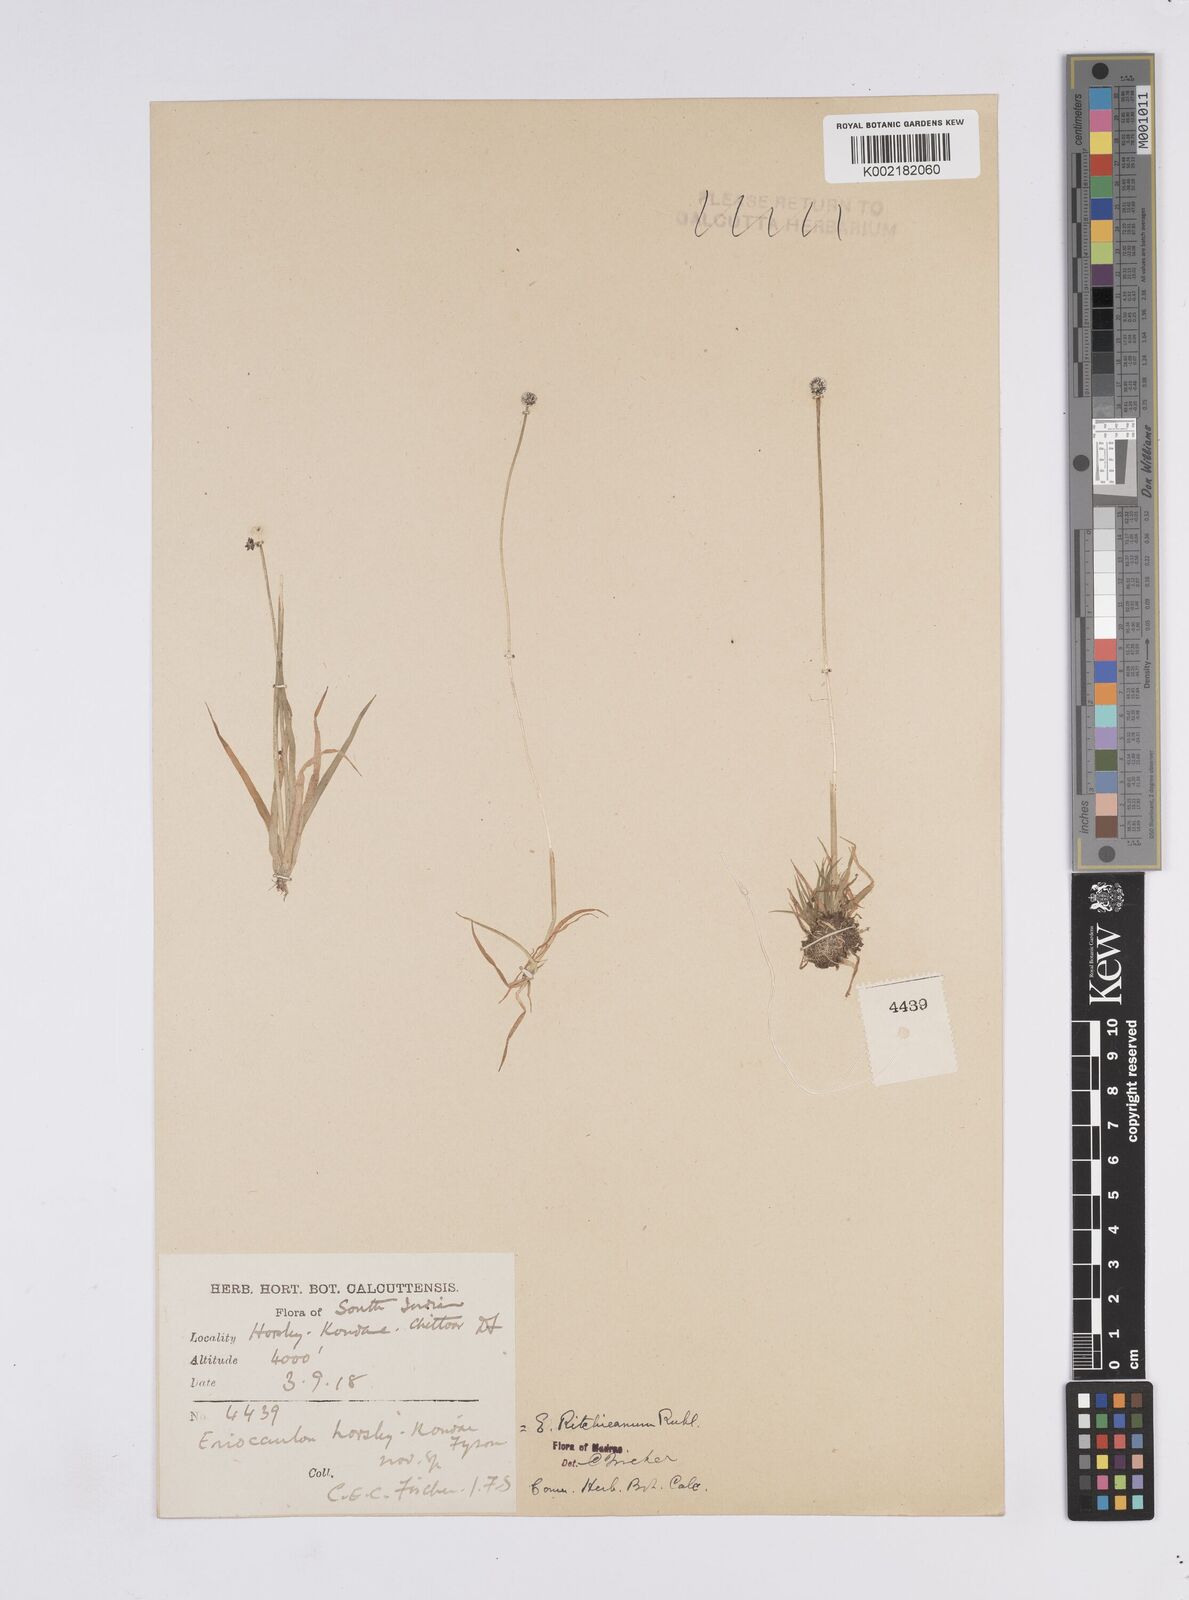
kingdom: Plantae
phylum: Tracheophyta
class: Liliopsida
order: Poales
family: Eriocaulaceae
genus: Eriocaulon
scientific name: Eriocaulon ritchieanum
